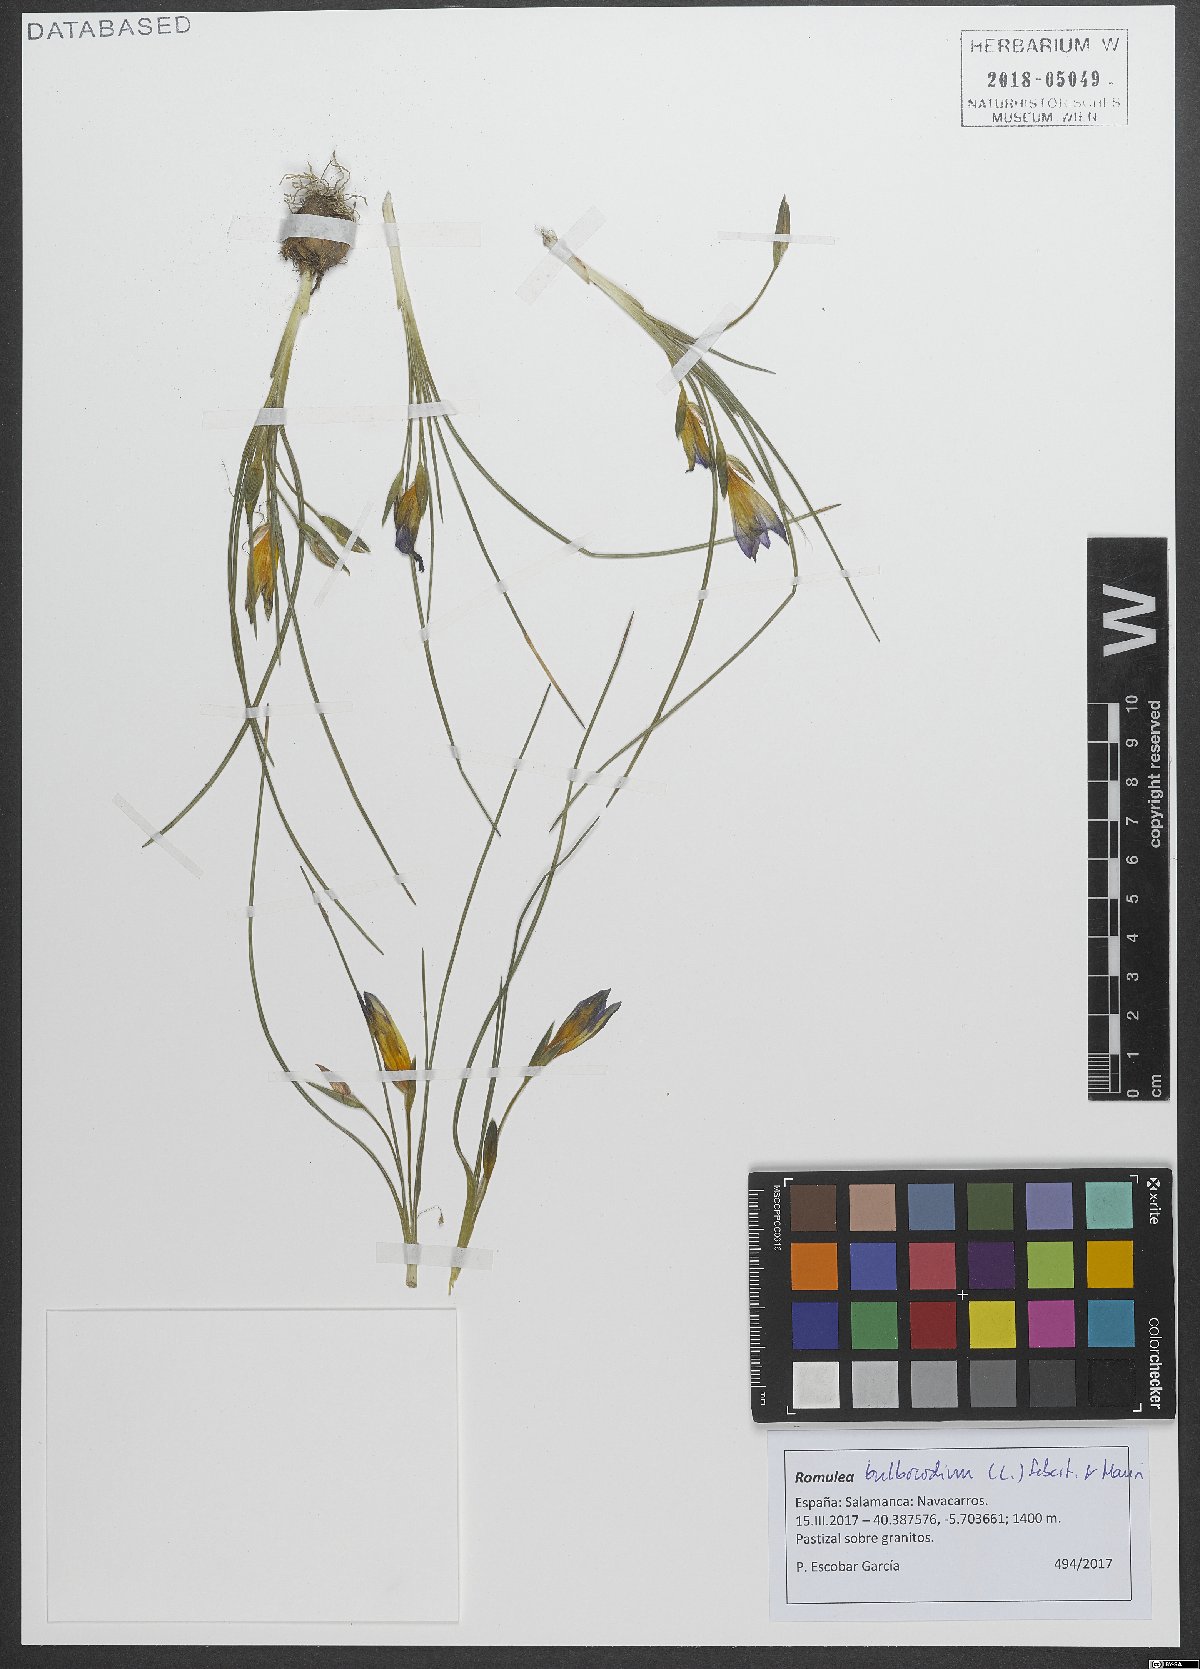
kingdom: Plantae
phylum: Tracheophyta
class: Liliopsida
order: Asparagales
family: Iridaceae
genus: Romulea
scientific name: Romulea bulbocodium
